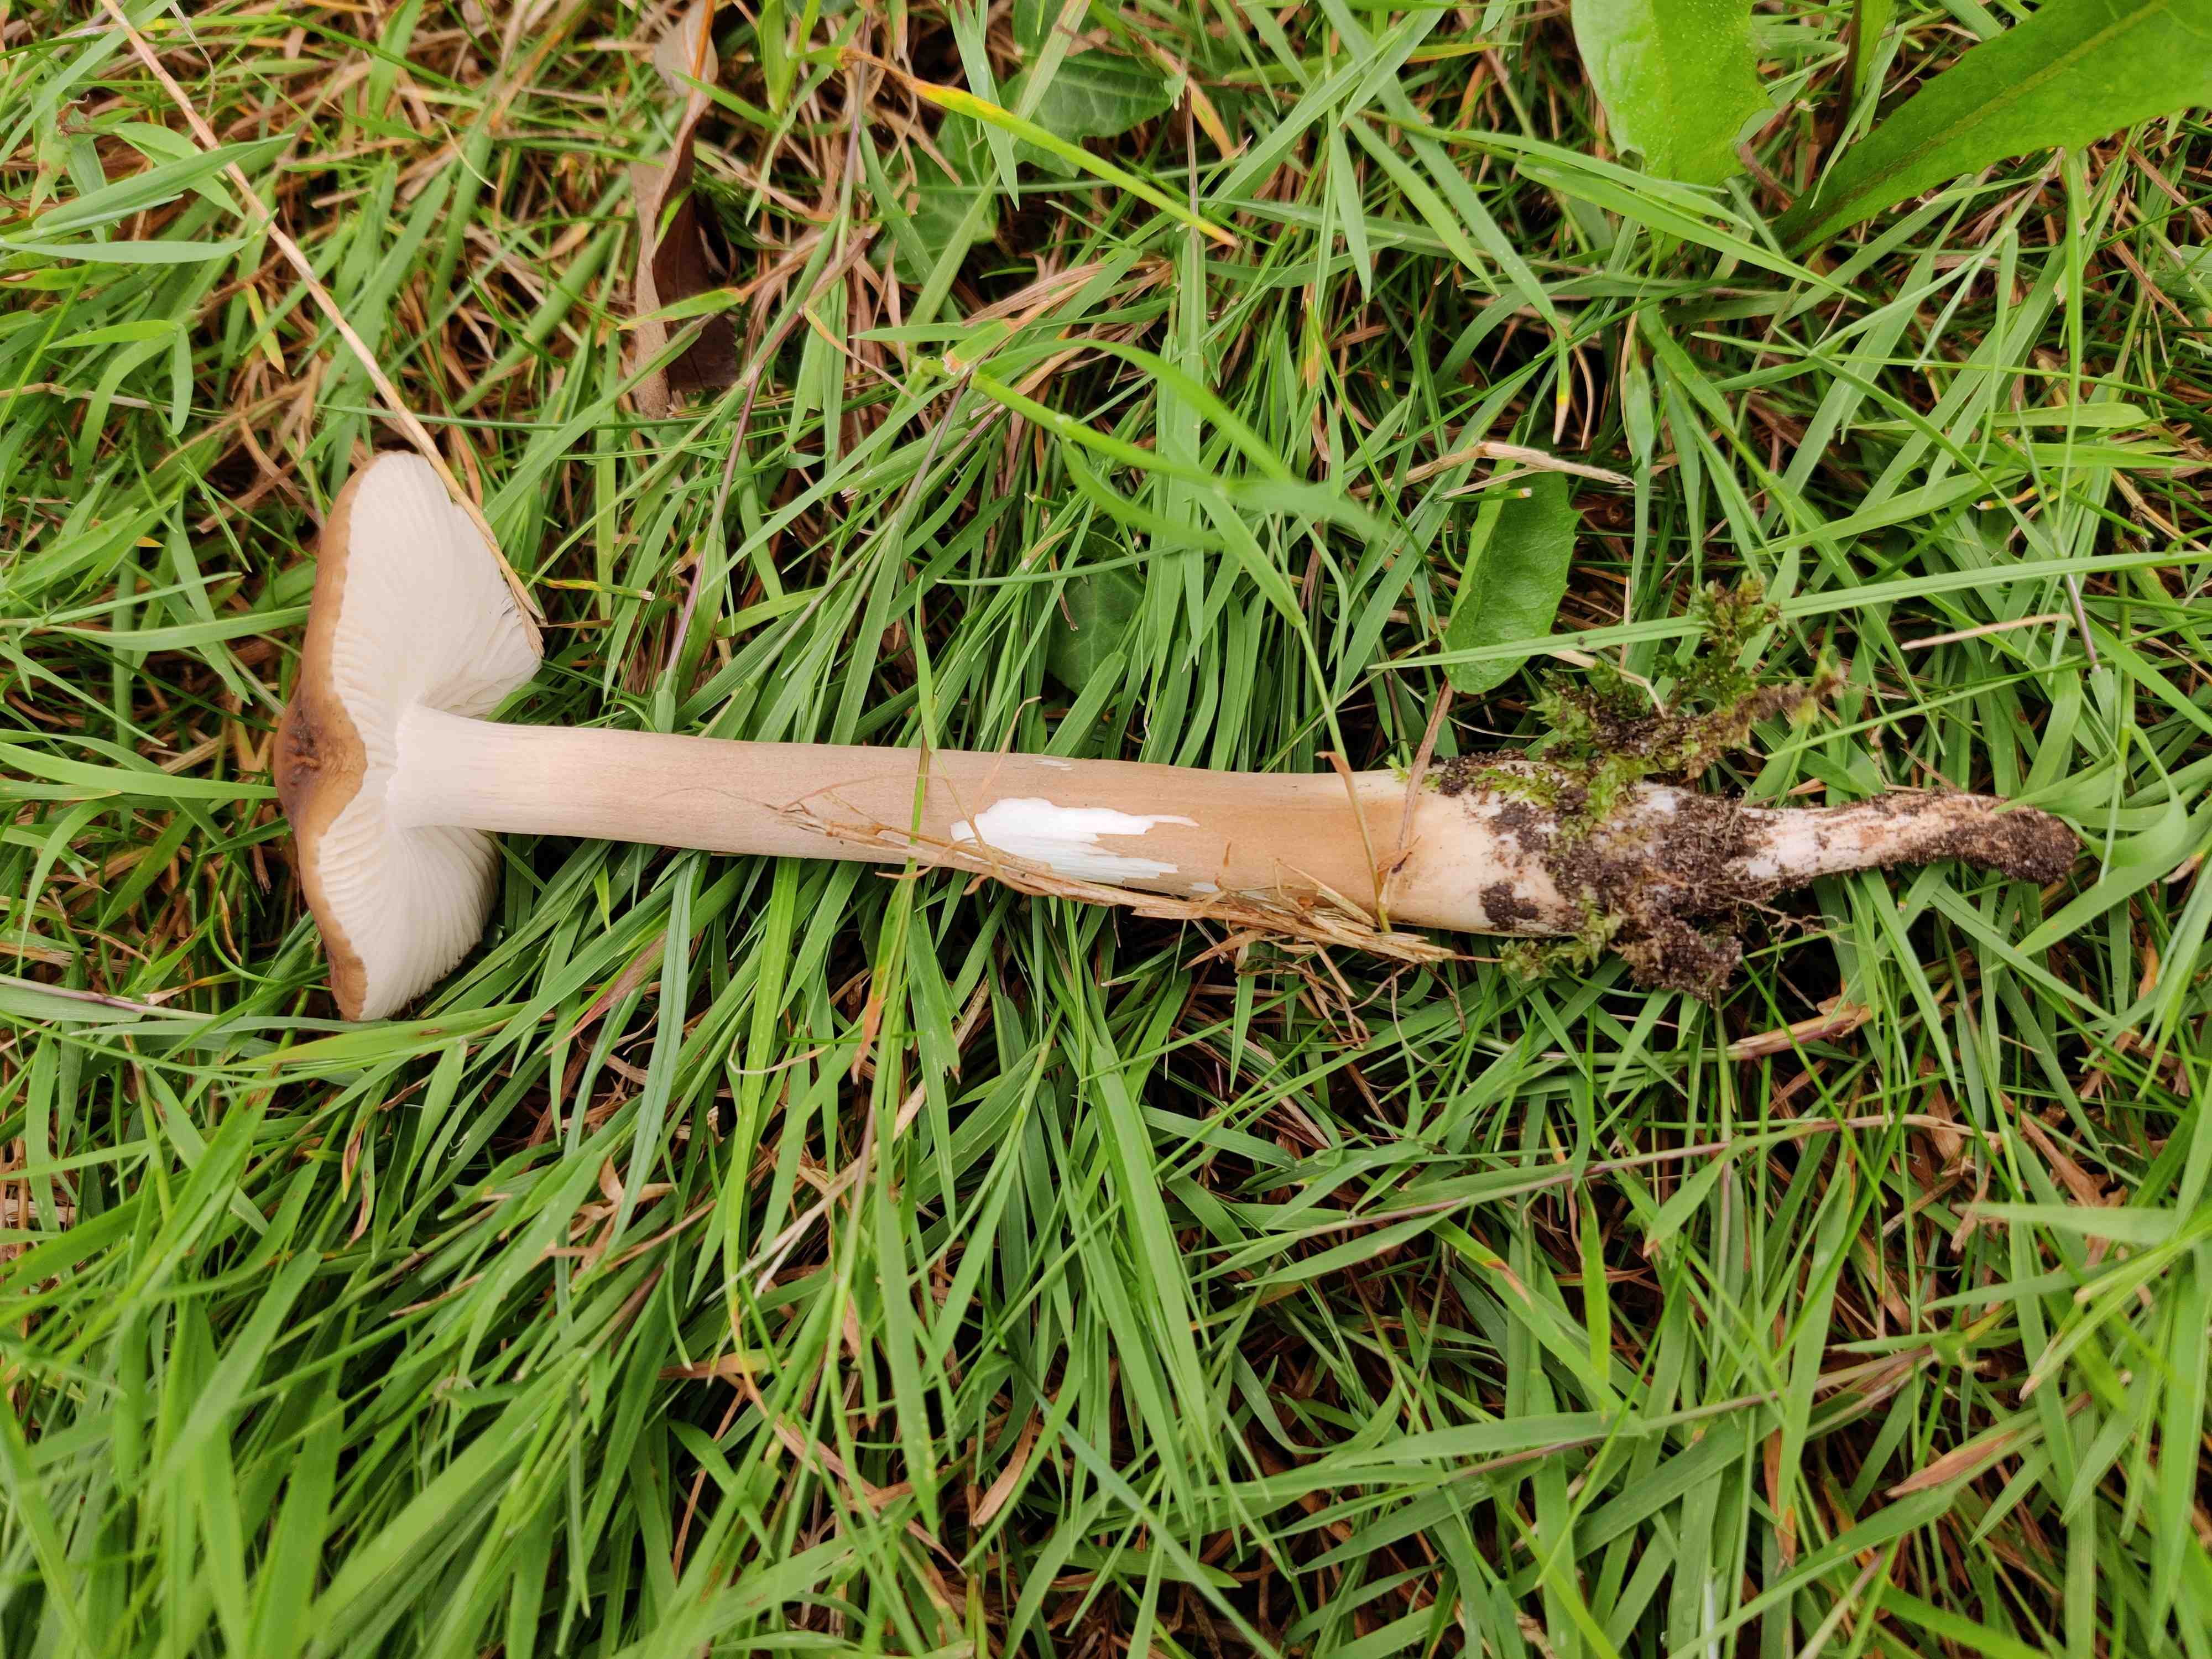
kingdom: Fungi
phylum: Basidiomycota
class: Agaricomycetes
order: Agaricales
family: Physalacriaceae
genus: Hymenopellis
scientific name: Hymenopellis radicata
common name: almindelig pælerodshat
